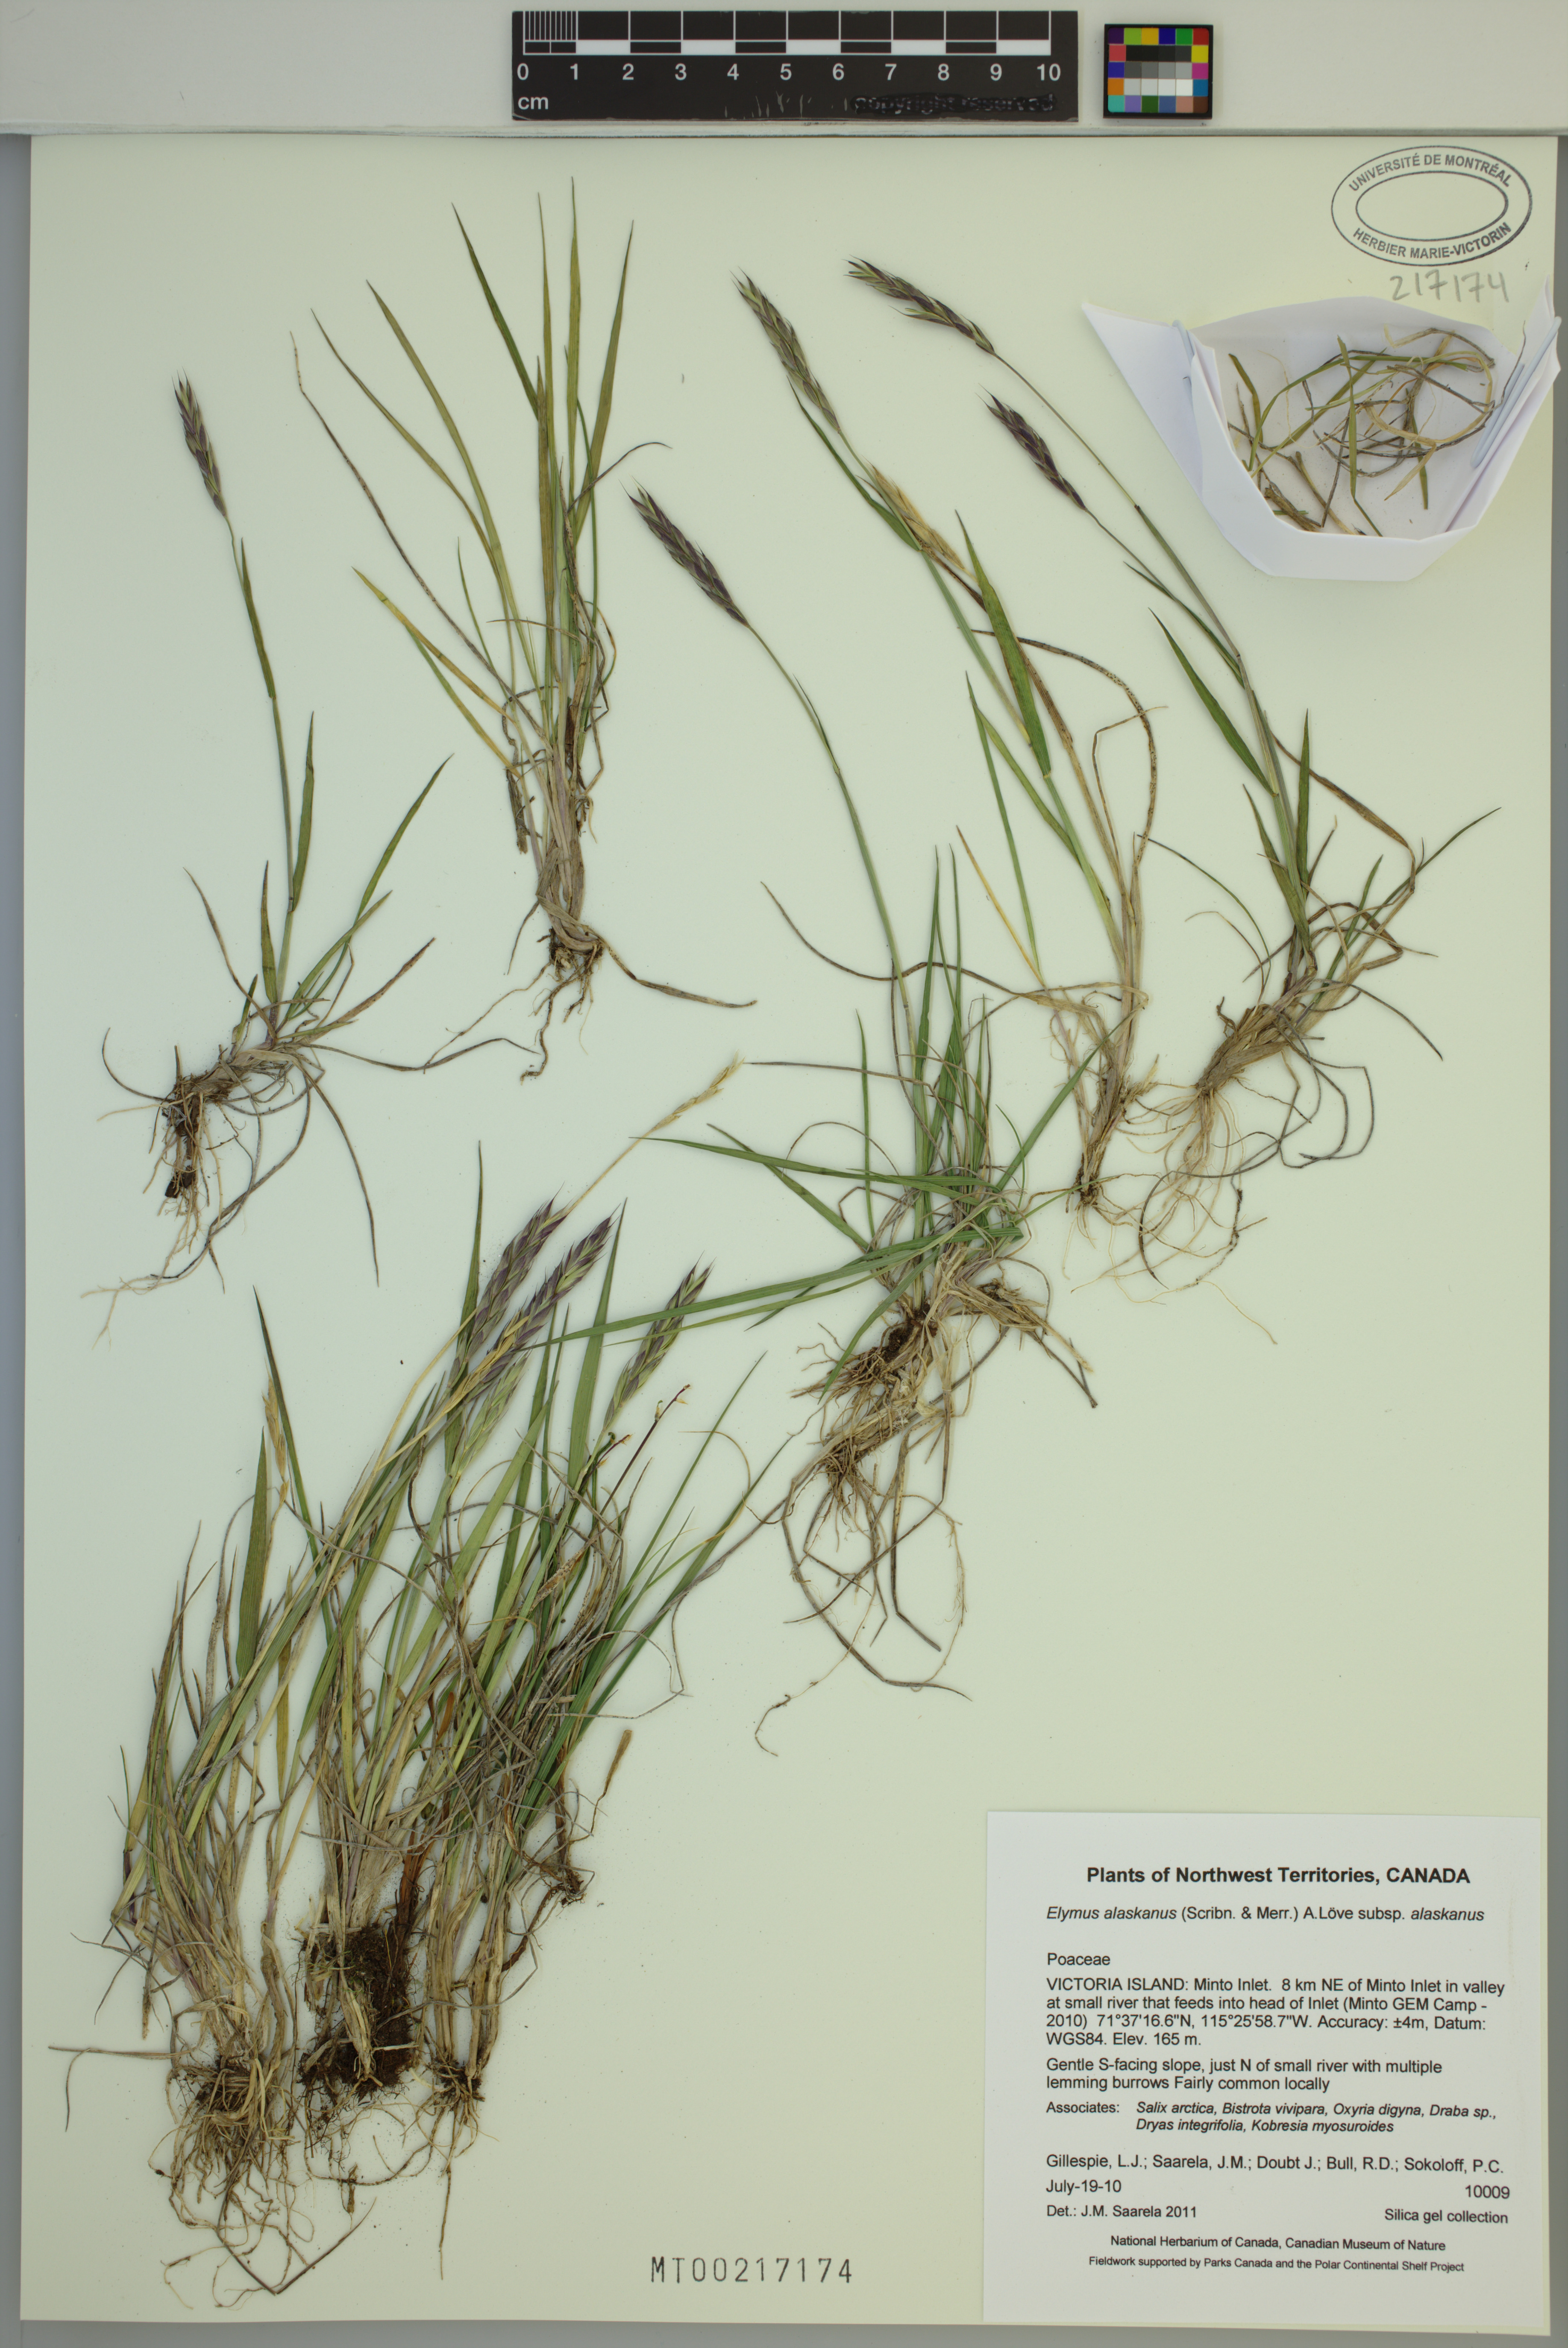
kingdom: Plantae
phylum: Tracheophyta
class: Liliopsida
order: Poales
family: Poaceae
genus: Elymus
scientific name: Elymus alaskanus
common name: Alaska wheatgrass
